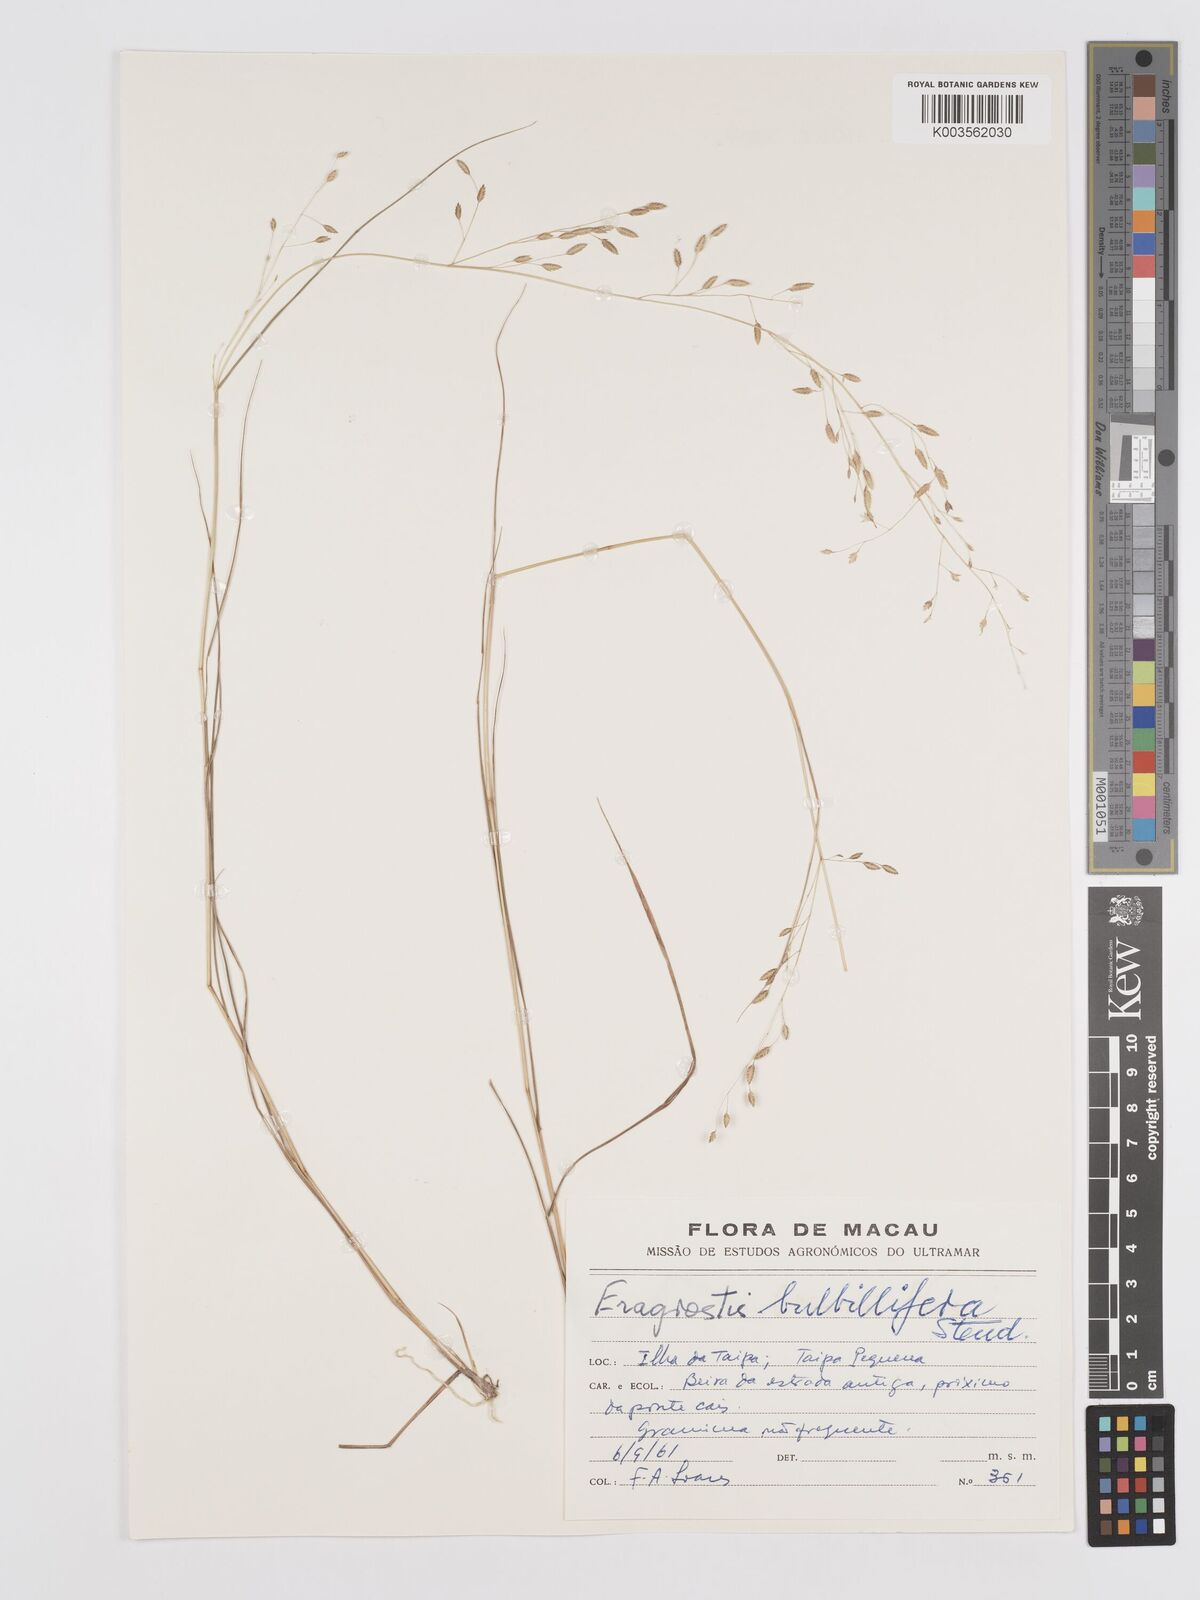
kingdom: Plantae
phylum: Tracheophyta
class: Liliopsida
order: Poales
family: Poaceae
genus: Eragrostis
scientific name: Eragrostis cumingii
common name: Cuming's lovegrass
